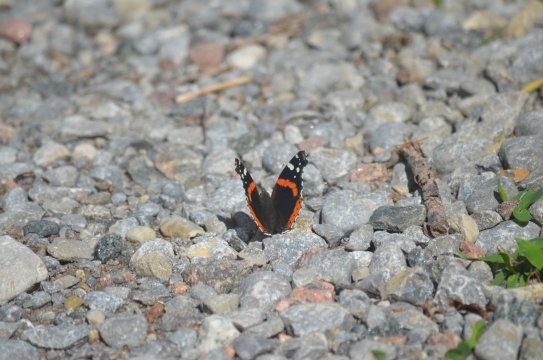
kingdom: Animalia
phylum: Arthropoda
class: Insecta
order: Lepidoptera
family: Nymphalidae
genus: Vanessa
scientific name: Vanessa atalanta
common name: Red Admiral
